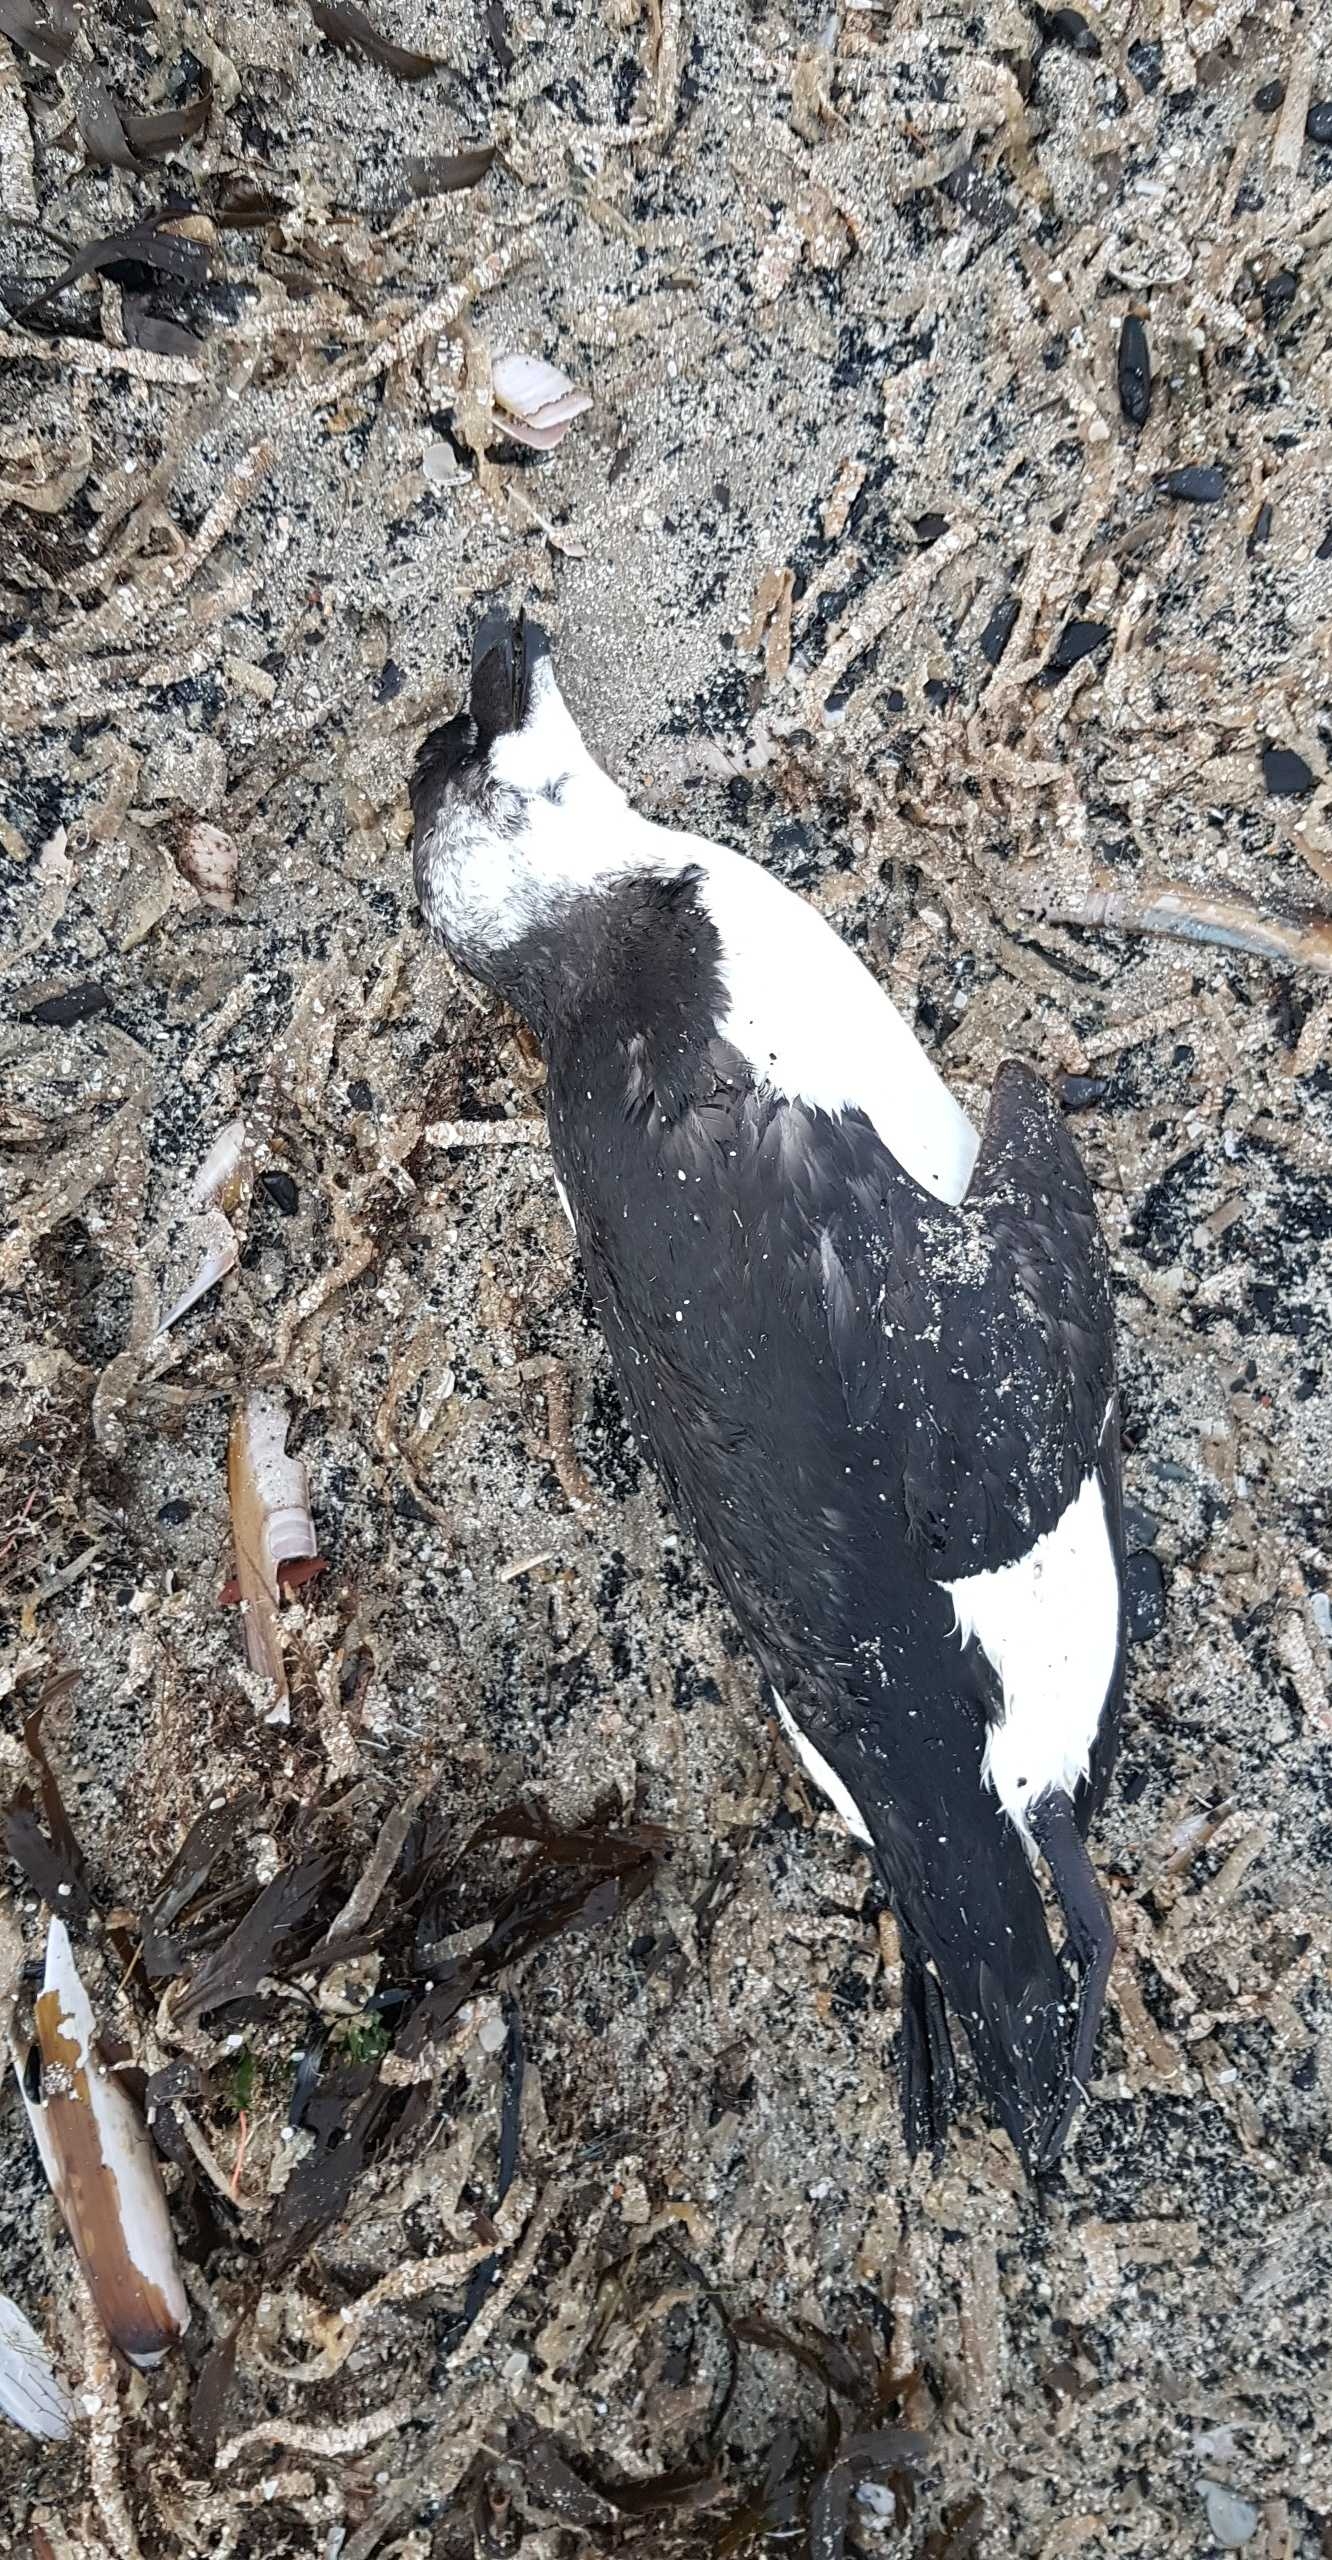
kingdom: Animalia
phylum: Chordata
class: Aves
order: Charadriiformes
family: Alcidae
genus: Alca
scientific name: Alca torda
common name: Alk
